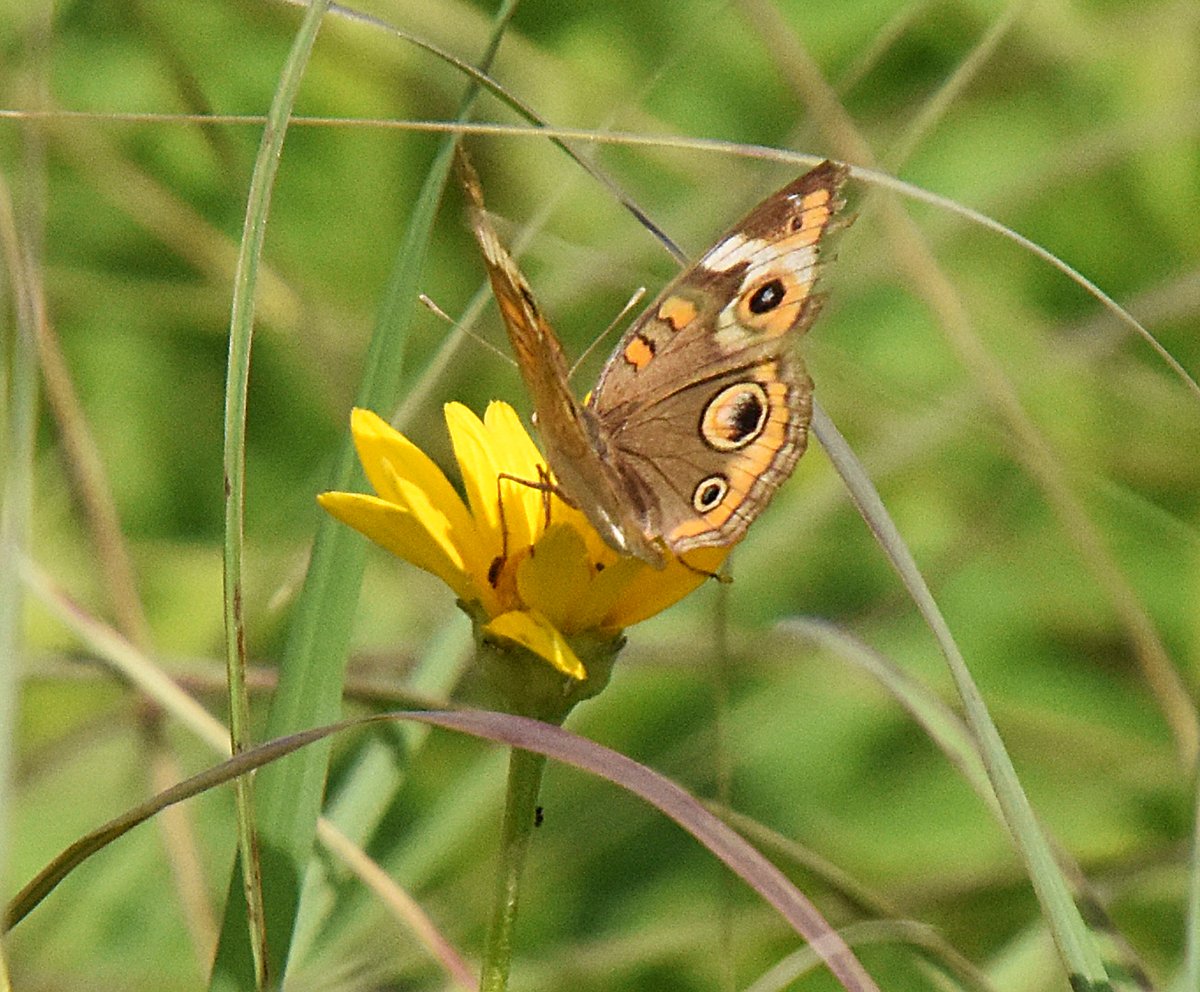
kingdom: Animalia
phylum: Arthropoda
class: Insecta
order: Lepidoptera
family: Nymphalidae
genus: Junonia
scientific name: Junonia coenia
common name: Common Buckeye
